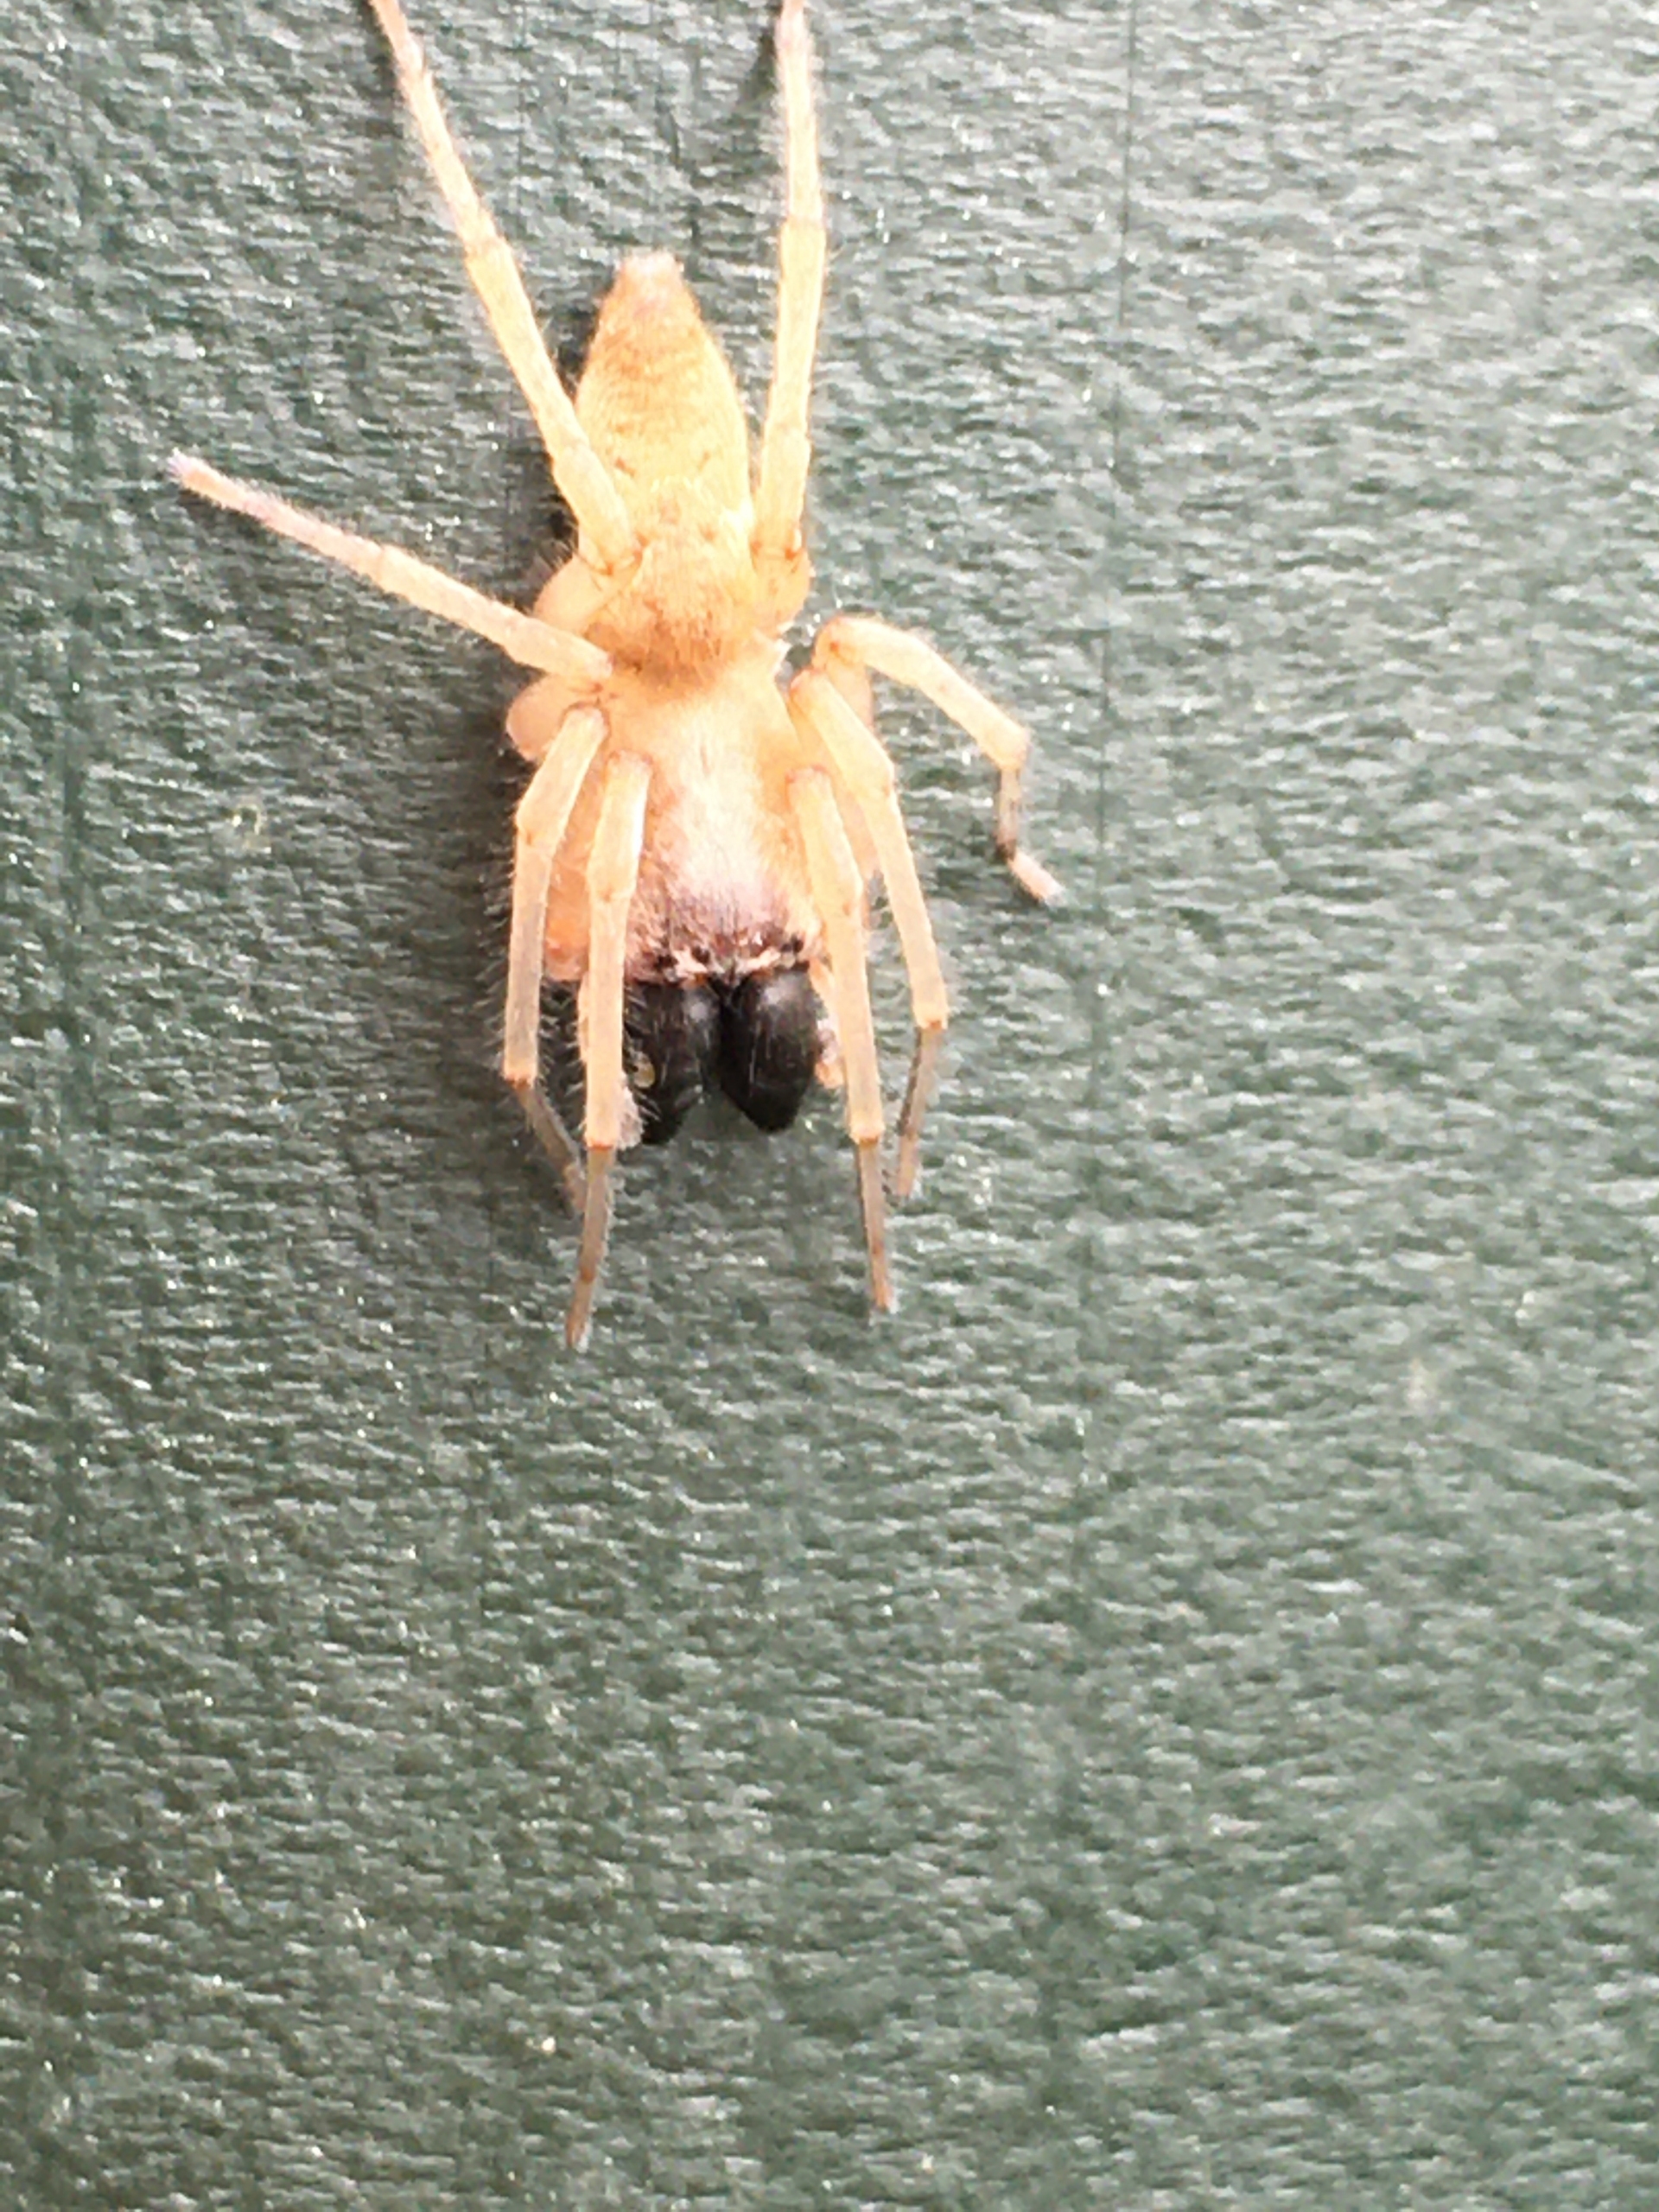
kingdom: Animalia
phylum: Arthropoda
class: Arachnida
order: Araneae
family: Clubionidae
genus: Clubiona
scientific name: Clubiona phragmitis
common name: Tagrørssækspinder
